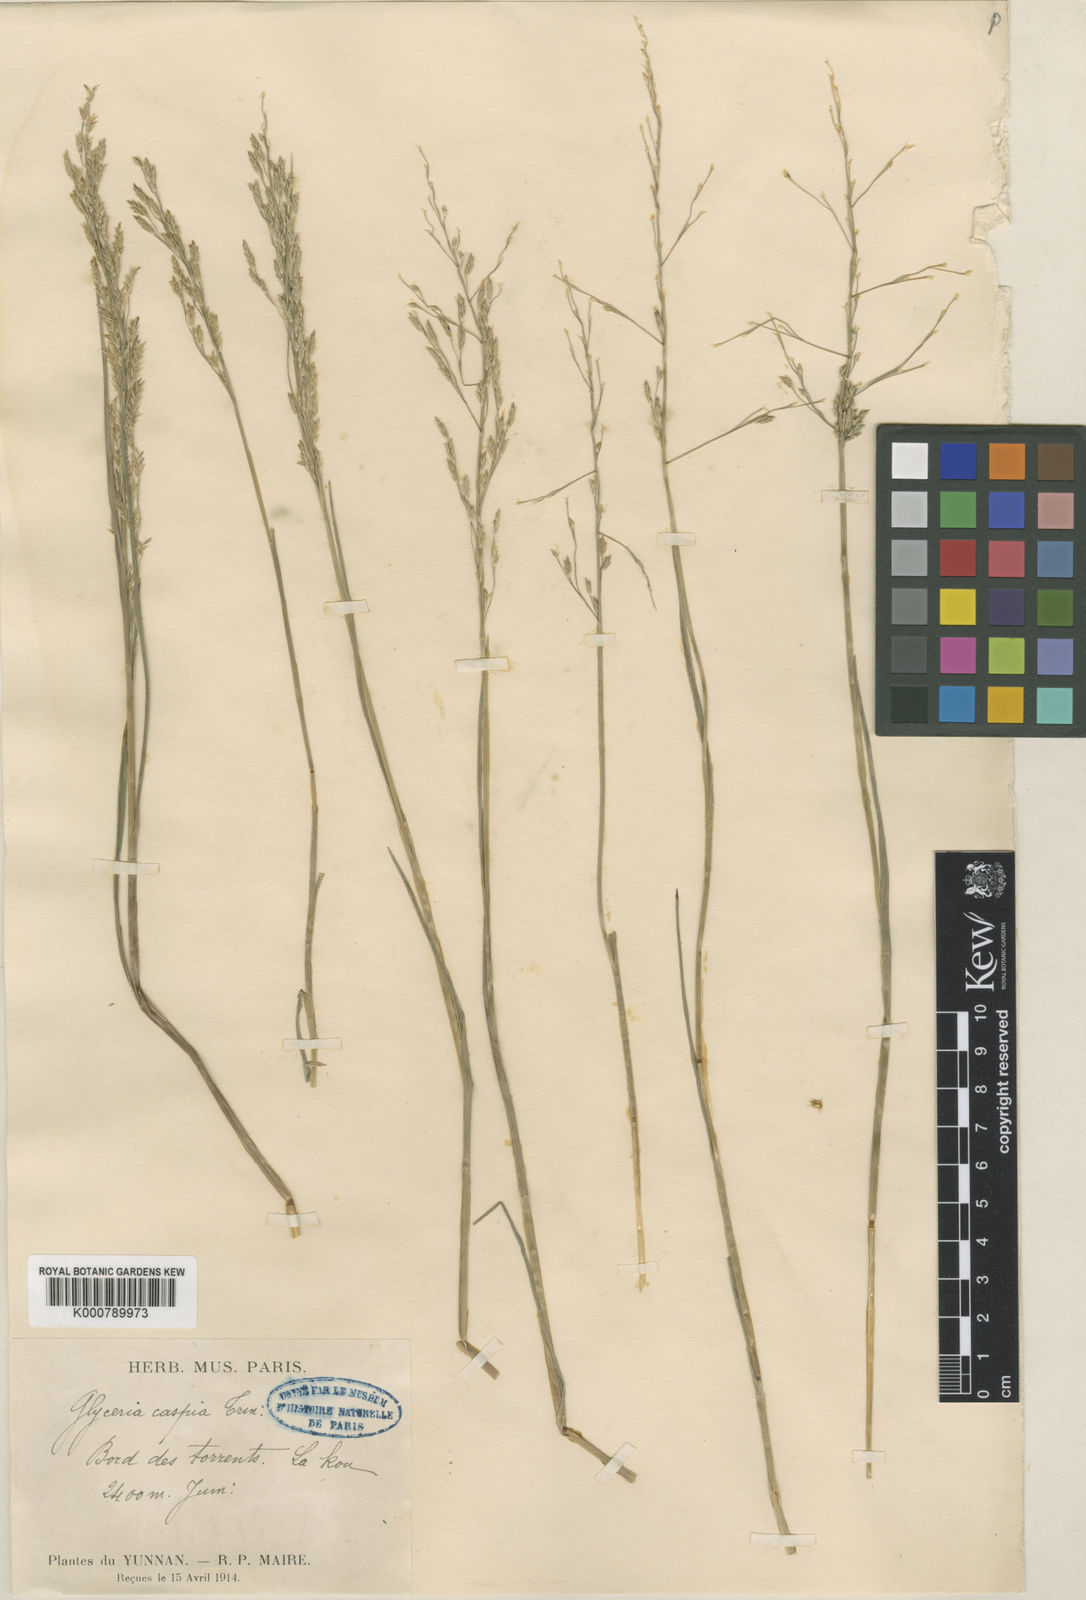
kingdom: Plantae
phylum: Tracheophyta
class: Liliopsida
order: Poales
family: Poaceae
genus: Glyceria
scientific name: Glyceria tonglensis
